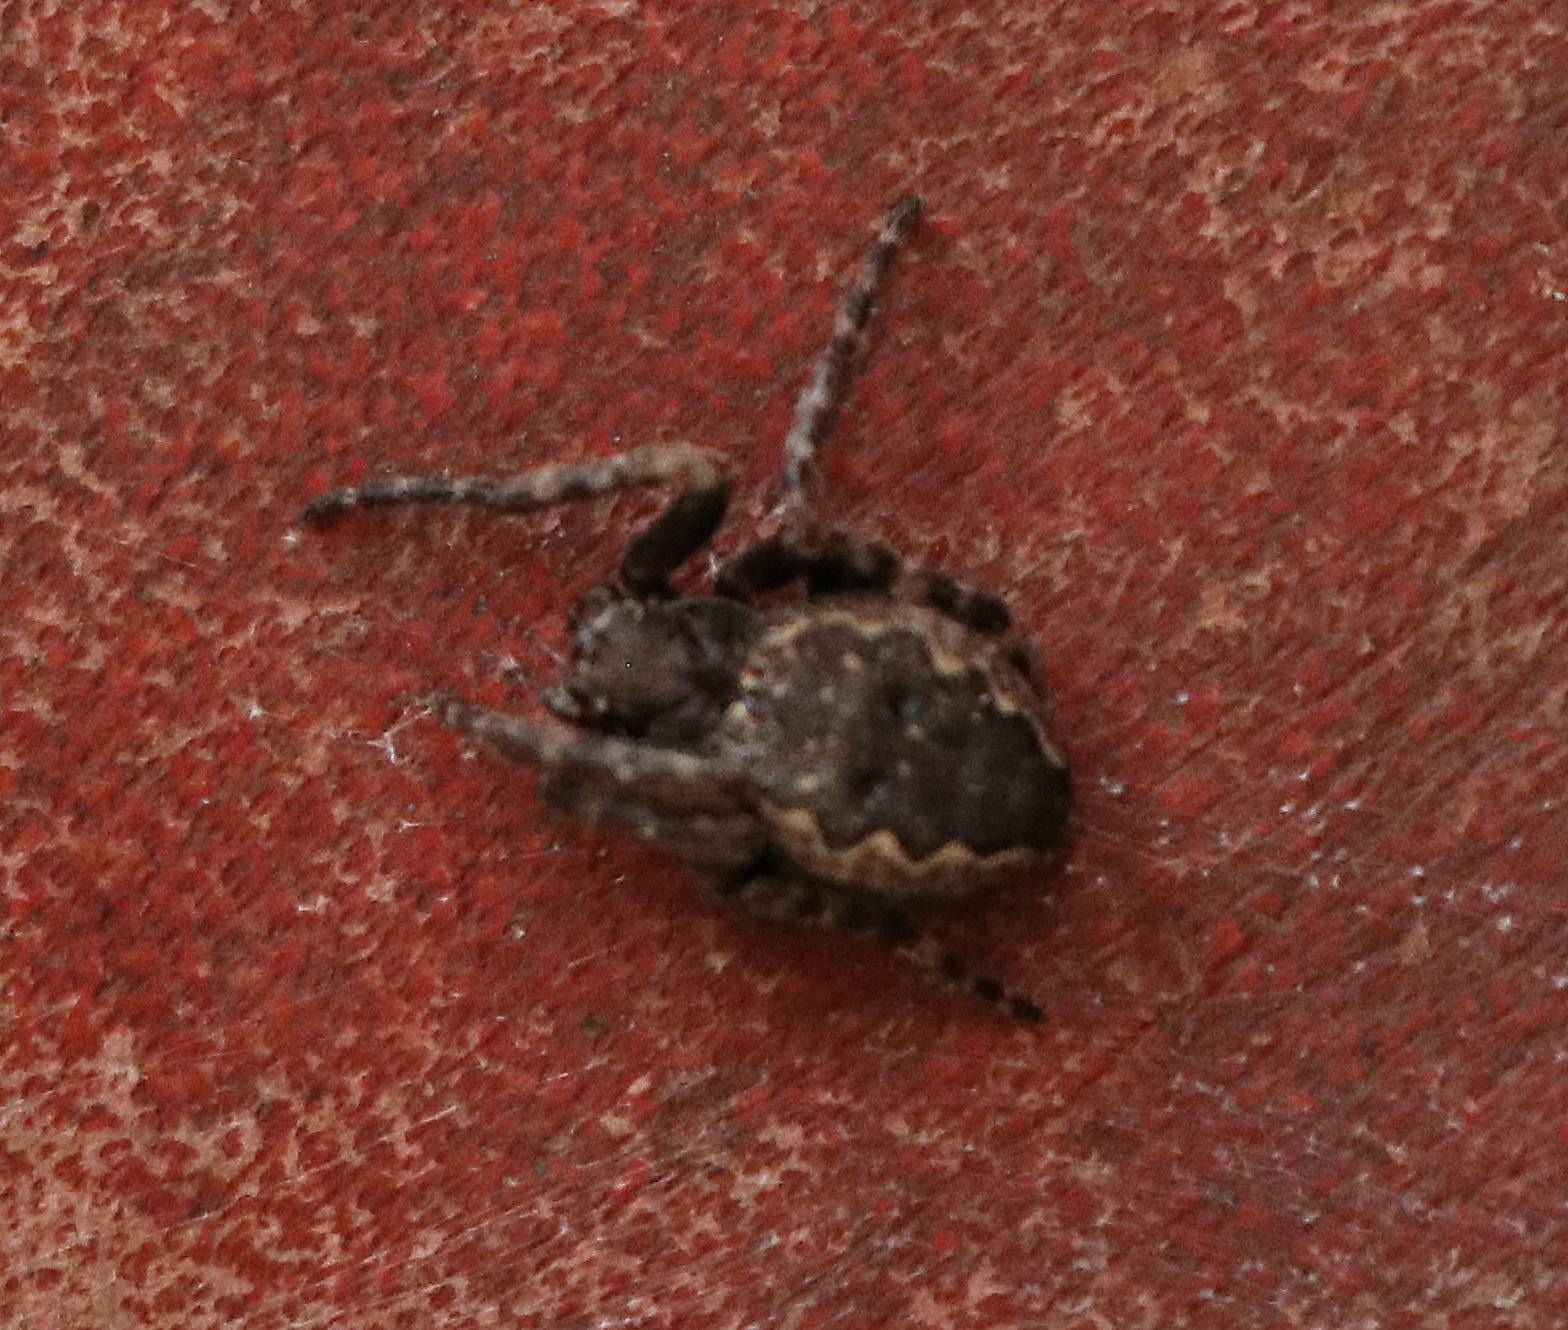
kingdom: Animalia
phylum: Arthropoda
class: Arachnida
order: Araneae
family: Araneidae
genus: Nuctenea
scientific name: Nuctenea umbratica
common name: Flad hjulspinder
